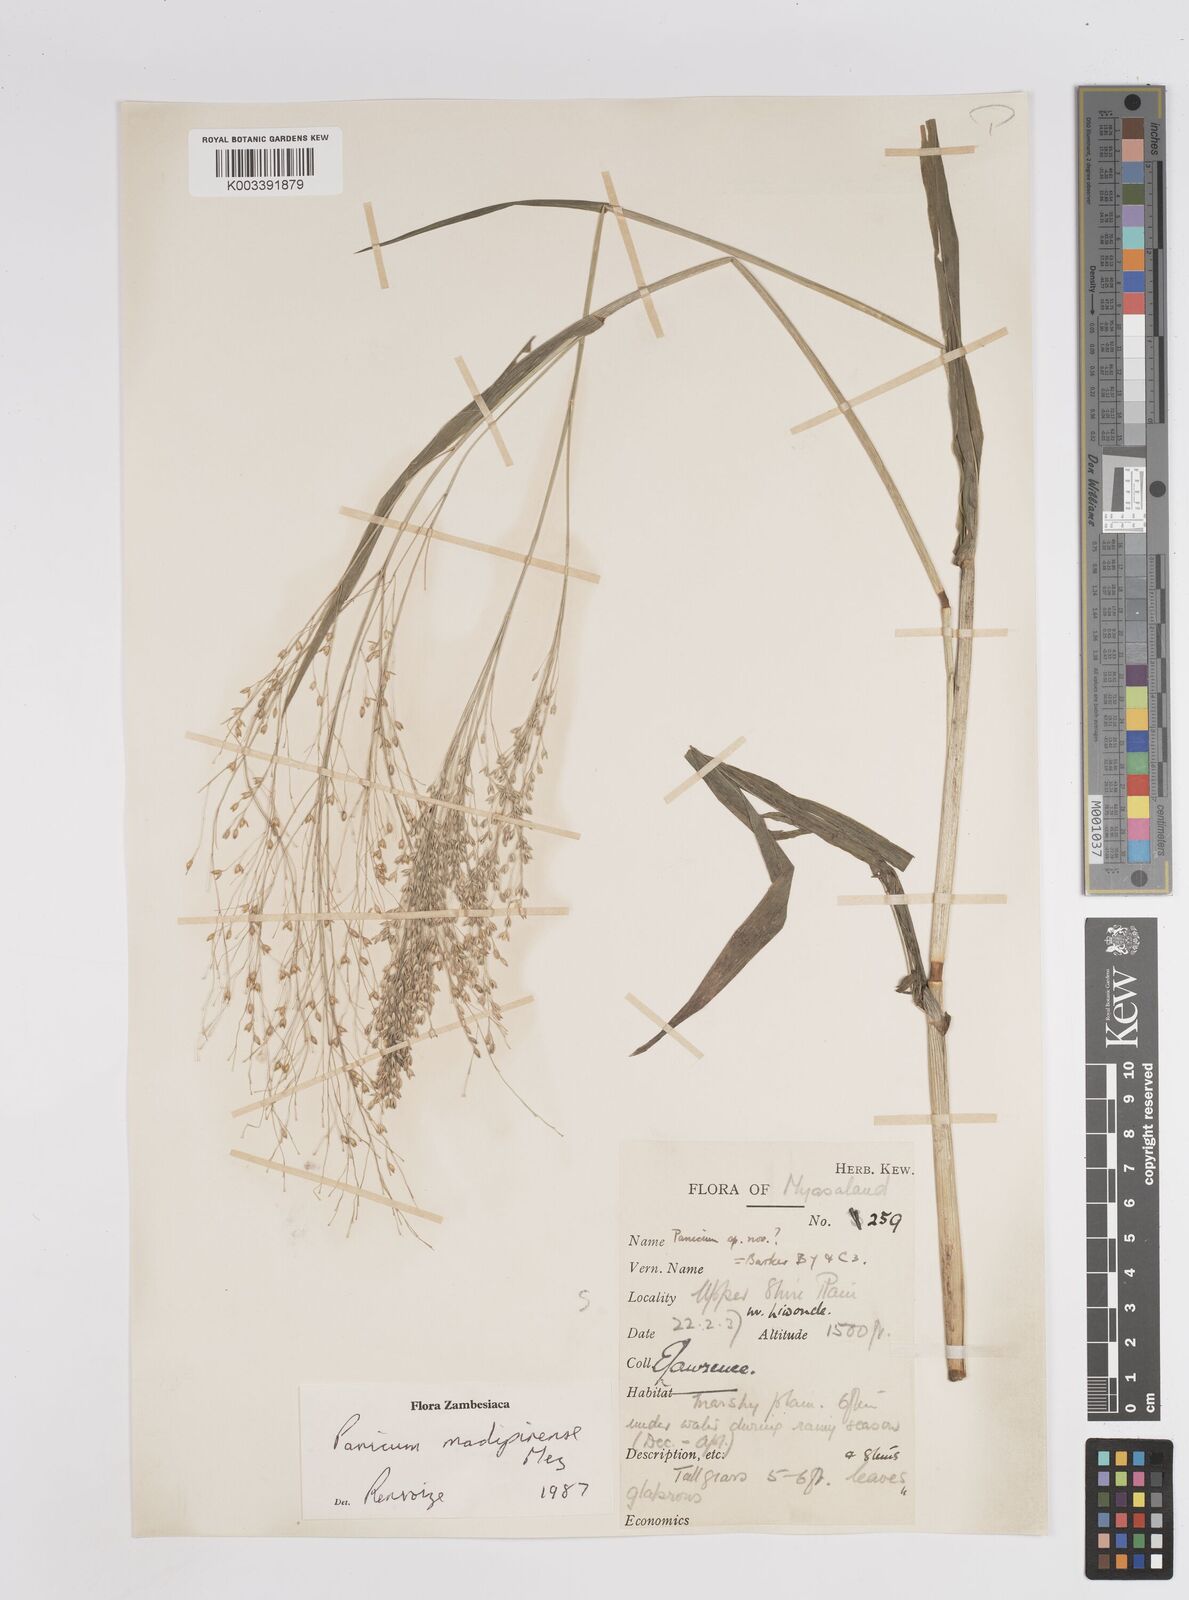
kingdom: Plantae
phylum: Tracheophyta
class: Liliopsida
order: Poales
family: Poaceae
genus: Panicum
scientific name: Panicum madipirense
